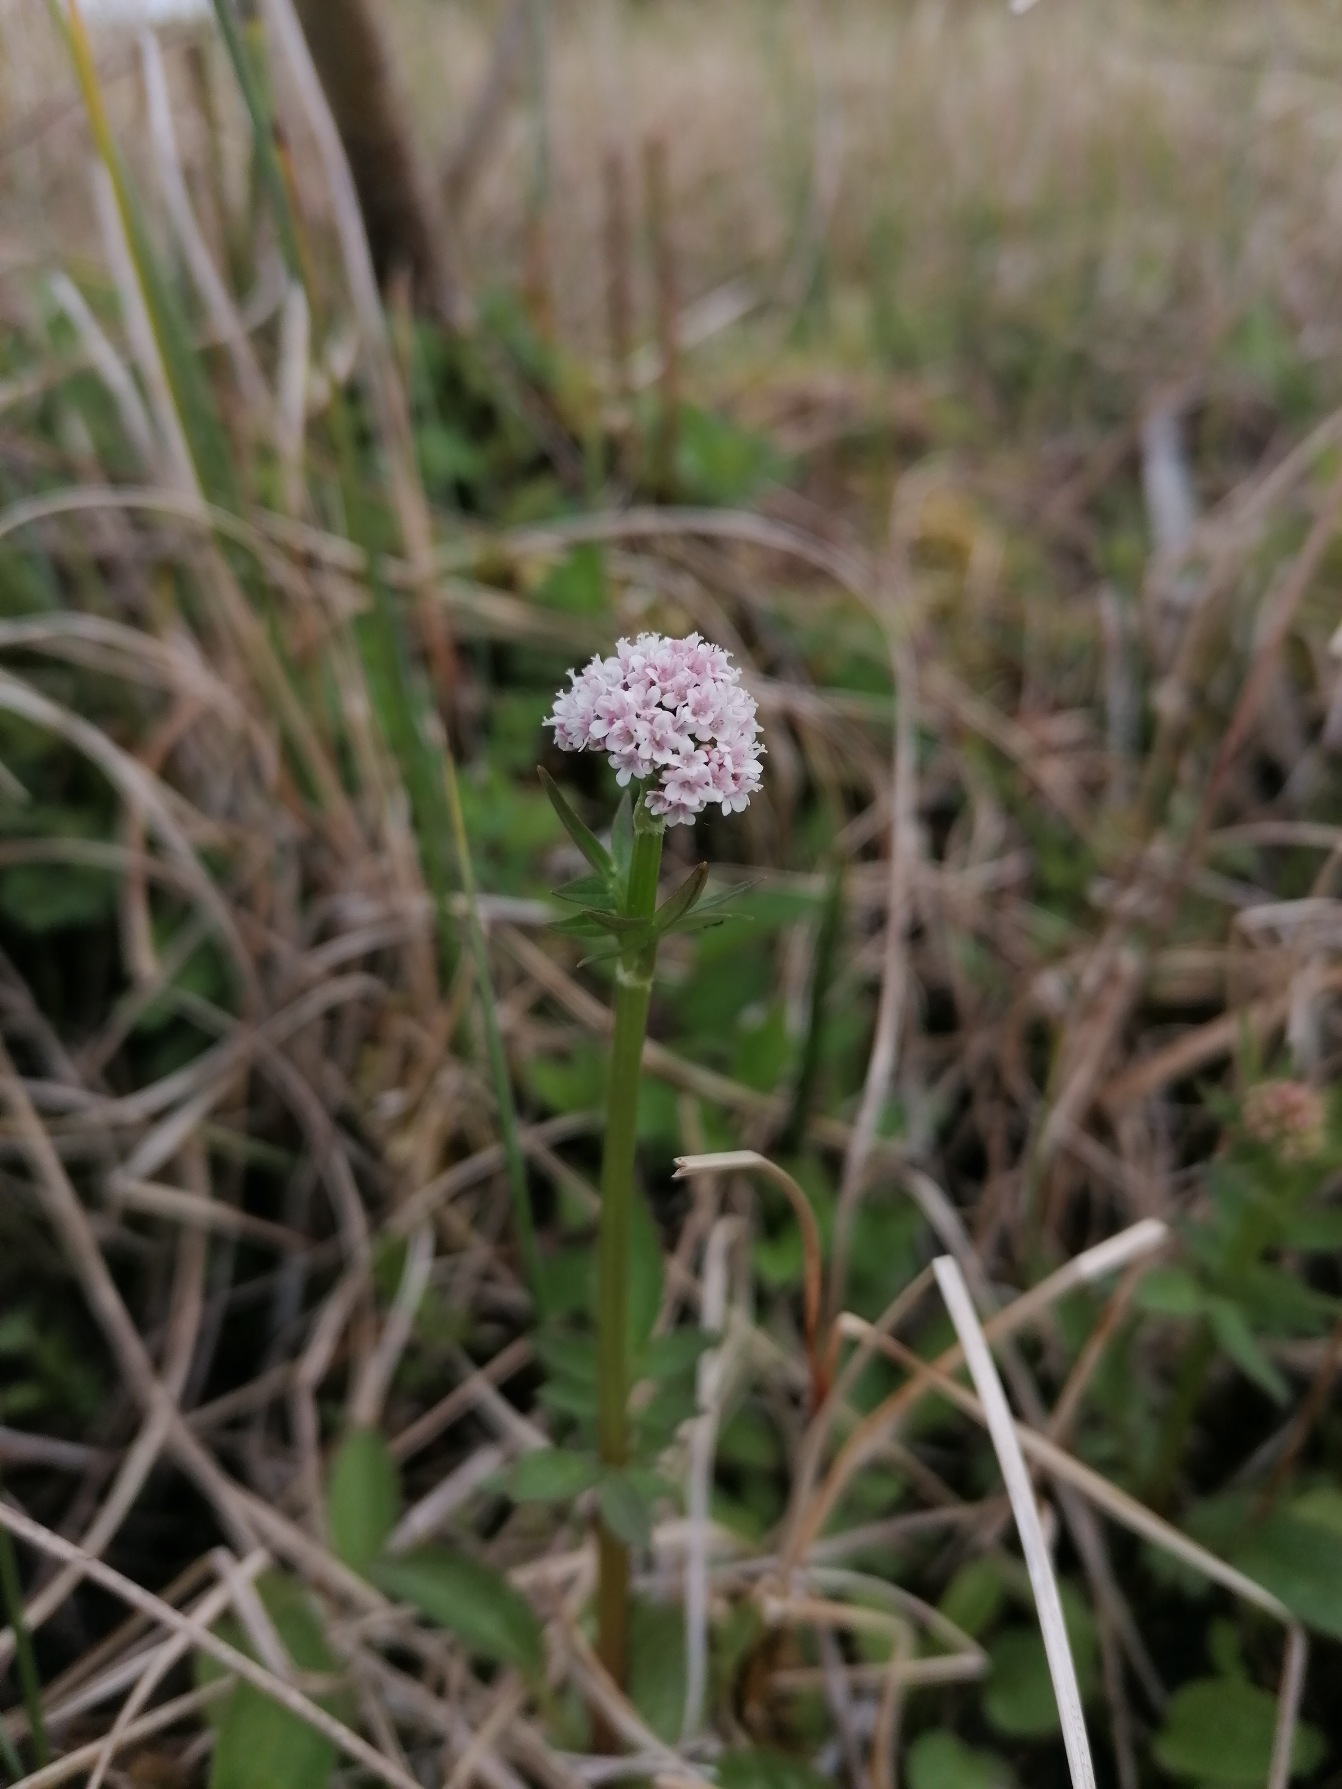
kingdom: Plantae
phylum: Tracheophyta
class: Magnoliopsida
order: Dipsacales
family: Caprifoliaceae
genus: Valeriana
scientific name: Valeriana dioica
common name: Tvebo baldrian
